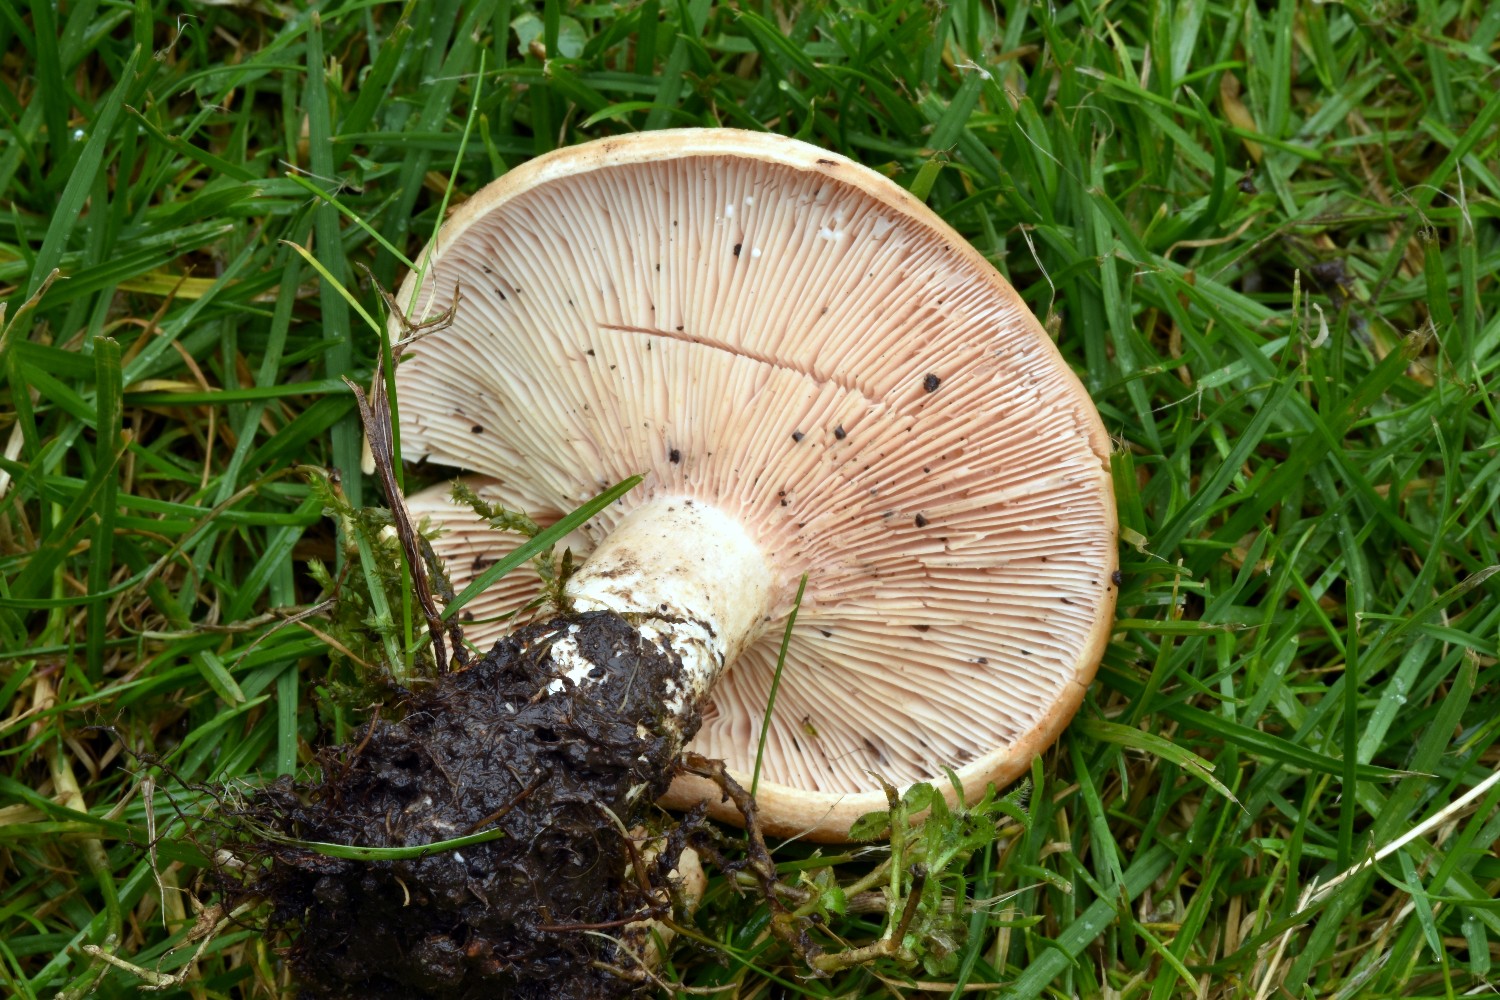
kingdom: Fungi
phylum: Basidiomycota
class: Agaricomycetes
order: Russulales
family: Russulaceae
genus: Lactarius
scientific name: Lactarius acerrimus
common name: brændende mælkehat
